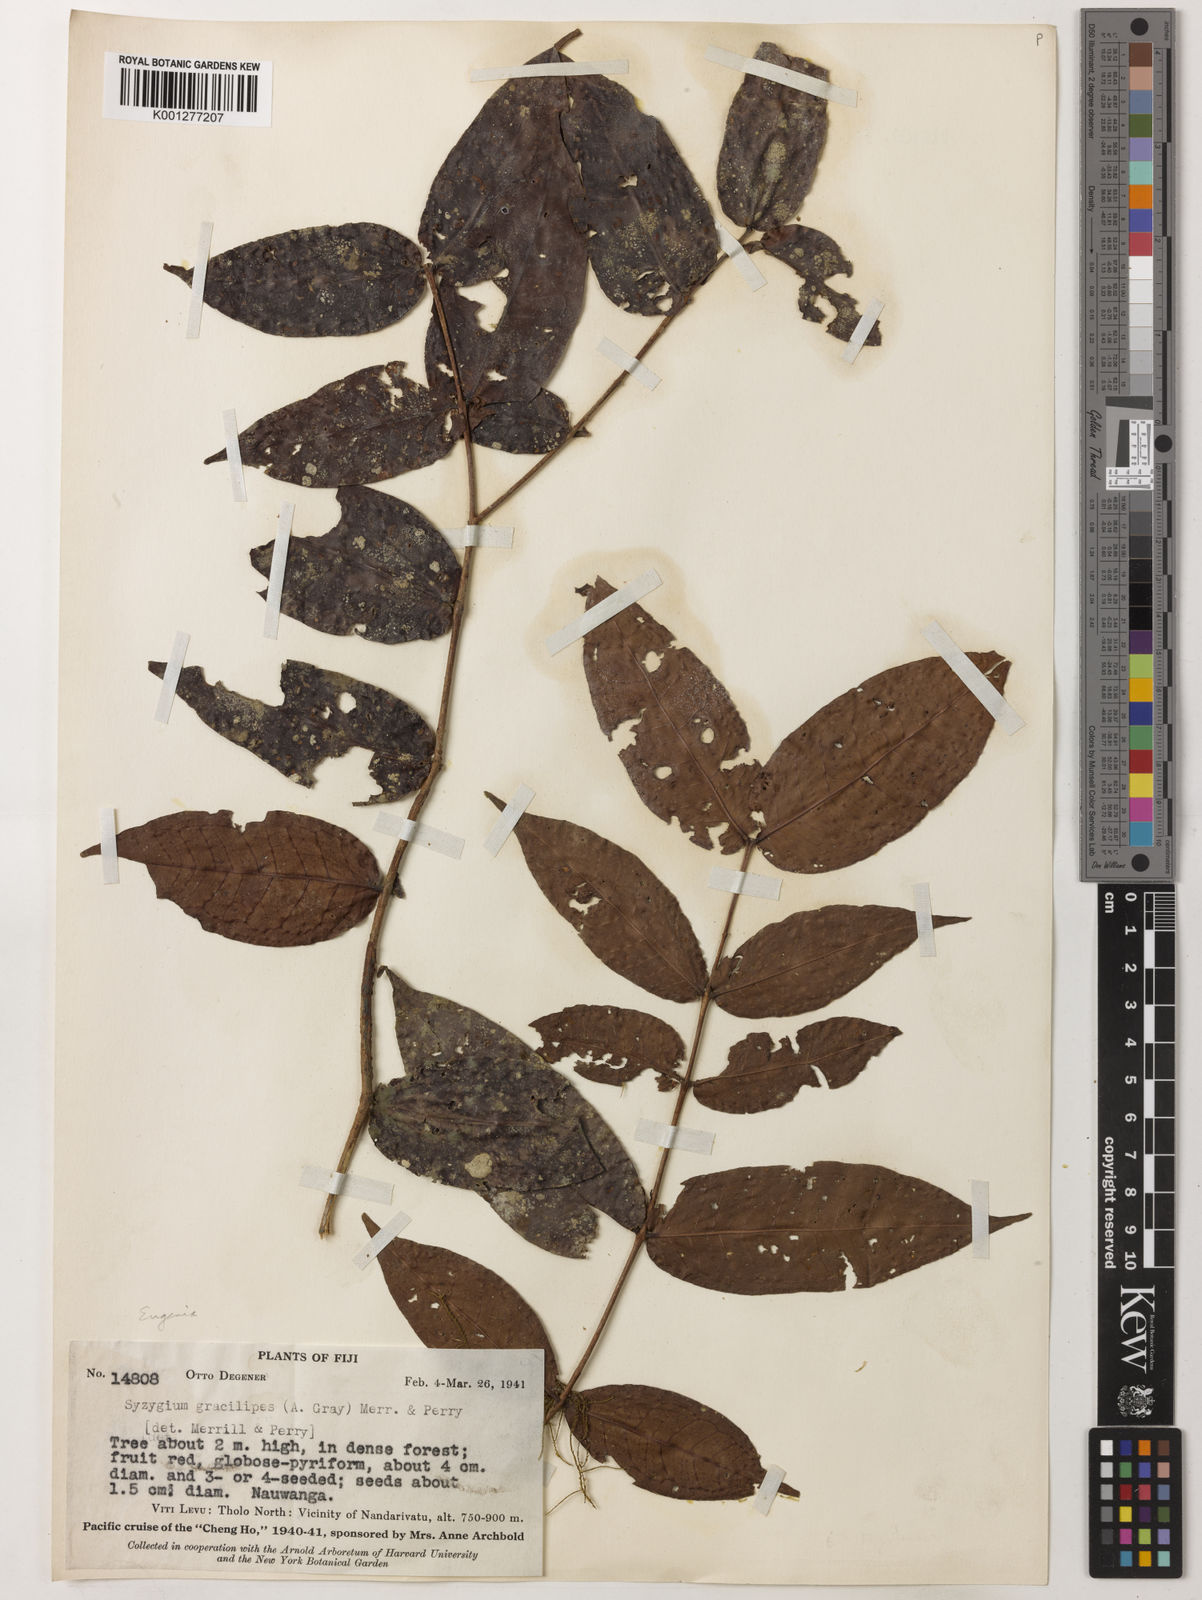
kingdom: Plantae
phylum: Tracheophyta
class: Magnoliopsida
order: Myrtales
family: Myrtaceae
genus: Syzygium
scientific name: Syzygium gracilipes
